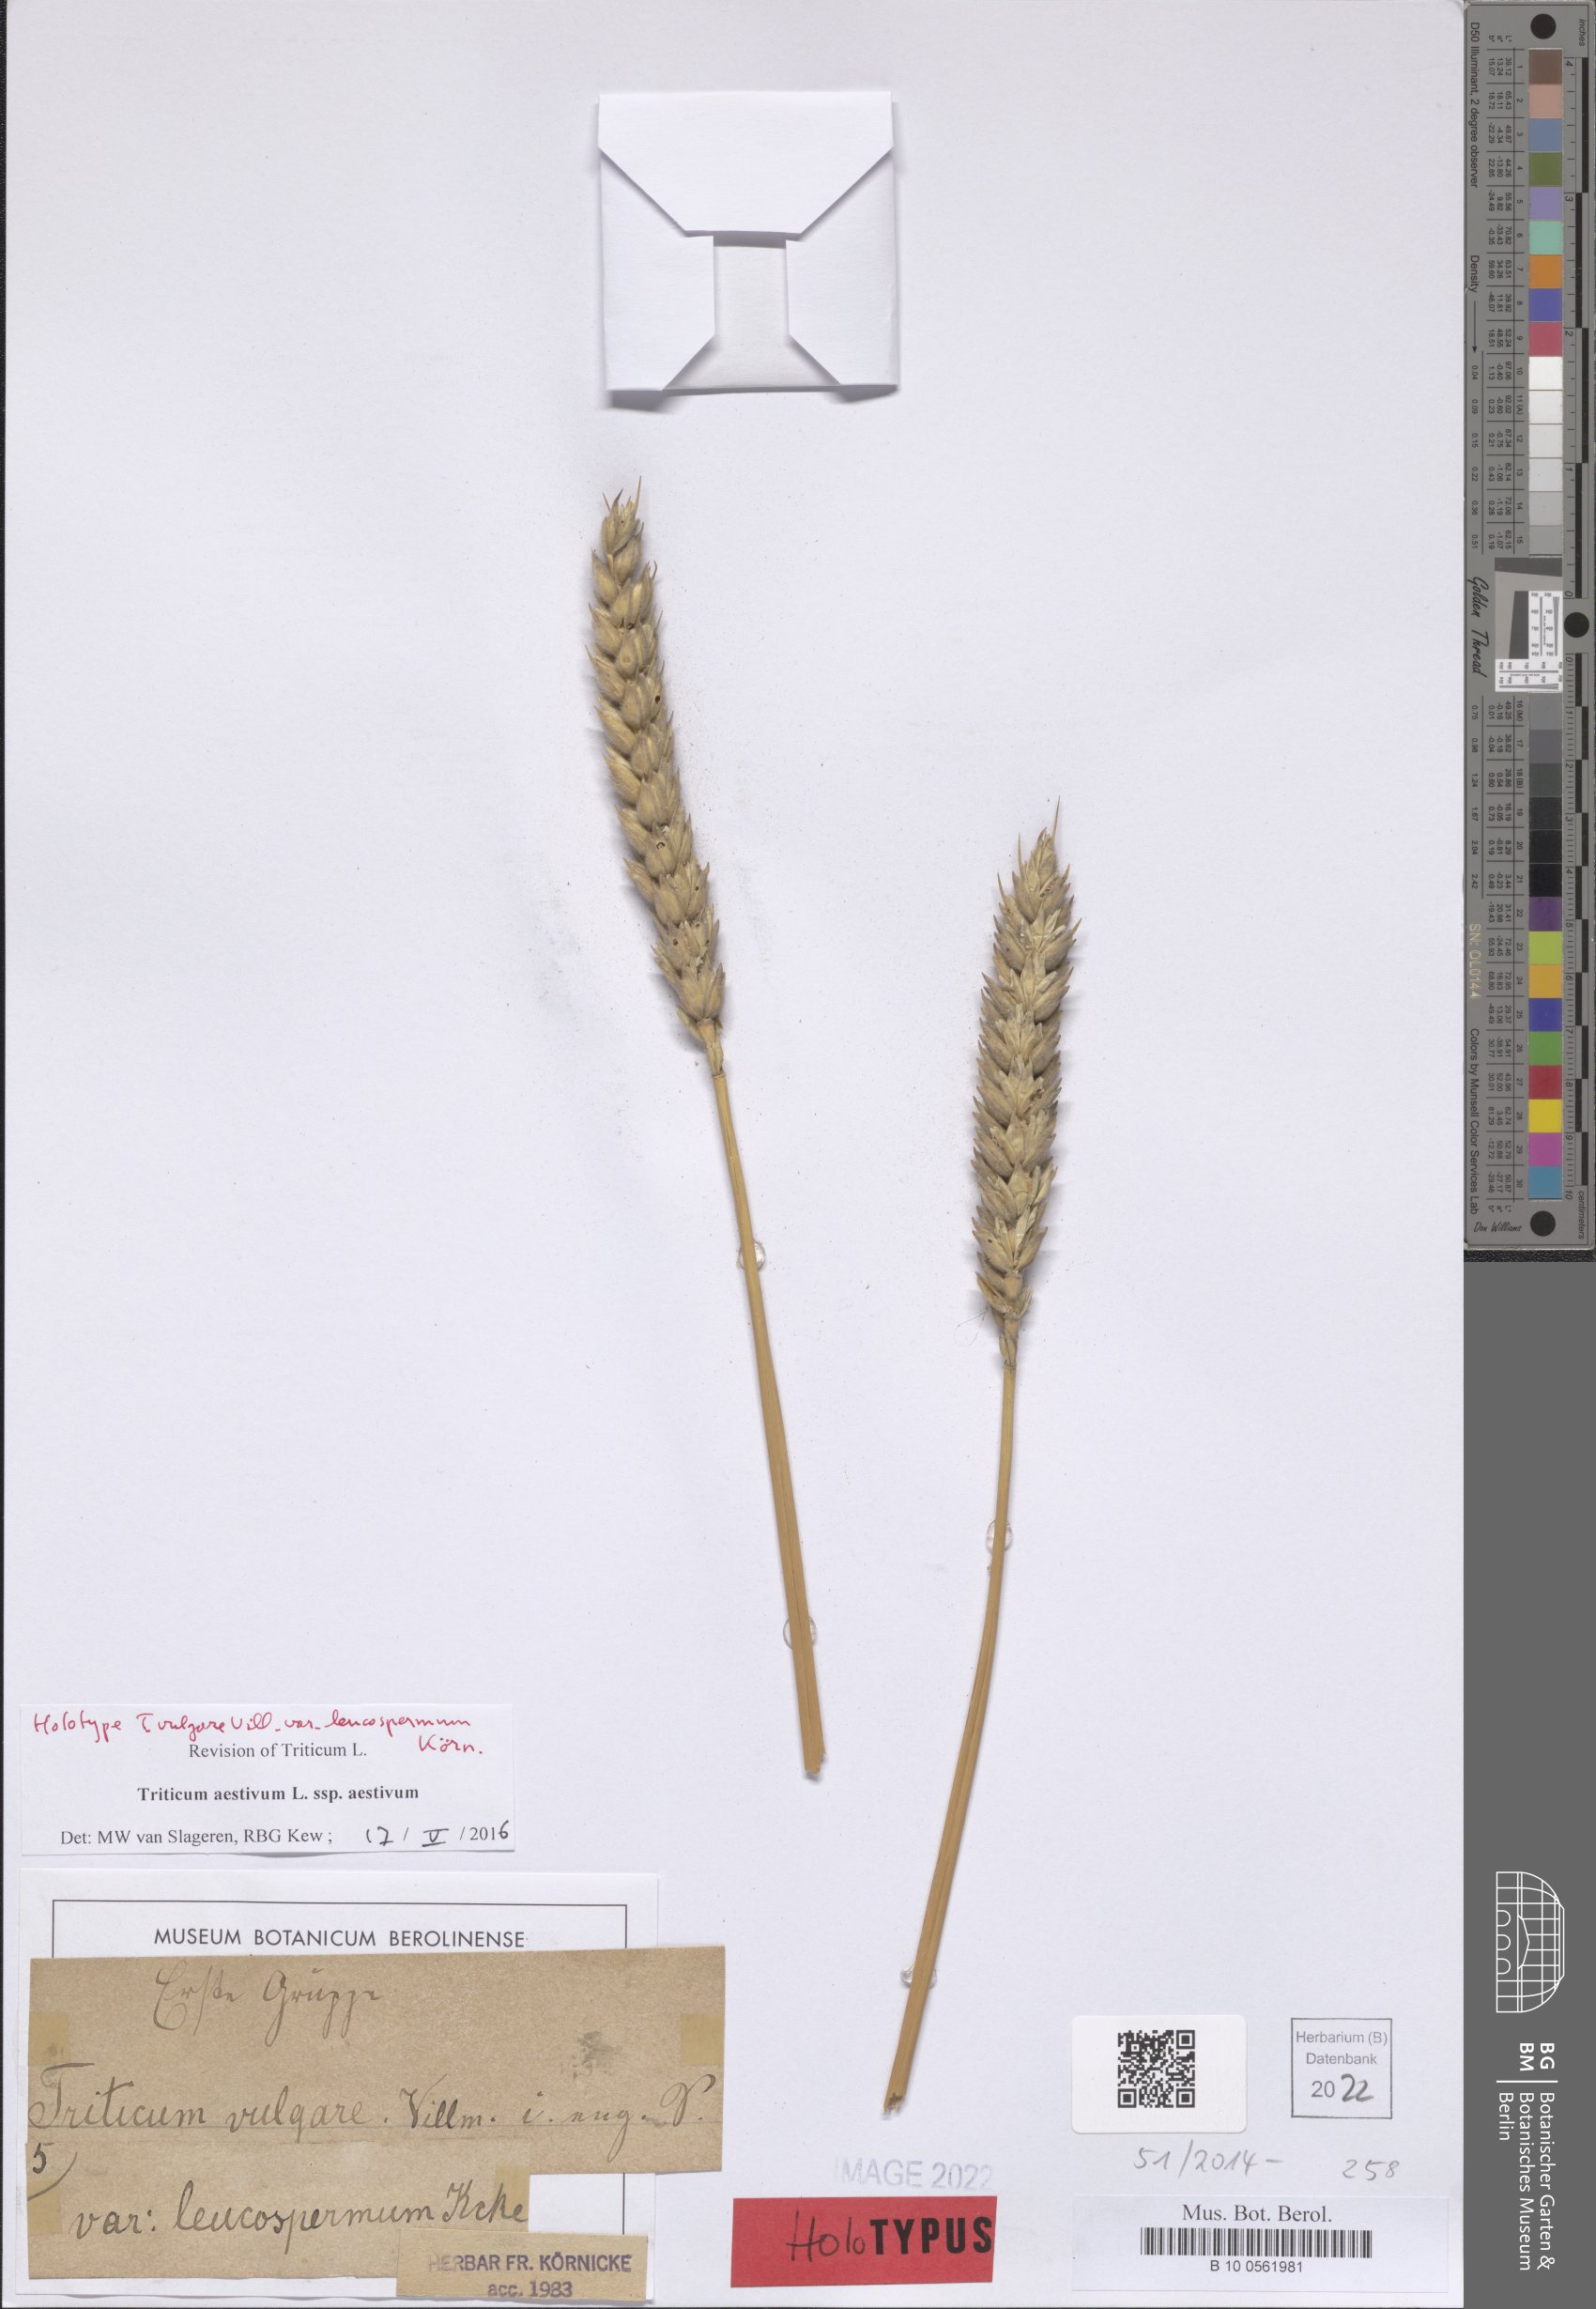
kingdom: Plantae
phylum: Tracheophyta
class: Liliopsida
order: Poales
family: Poaceae
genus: Triticum
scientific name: Triticum aestivum
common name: Common wheat
